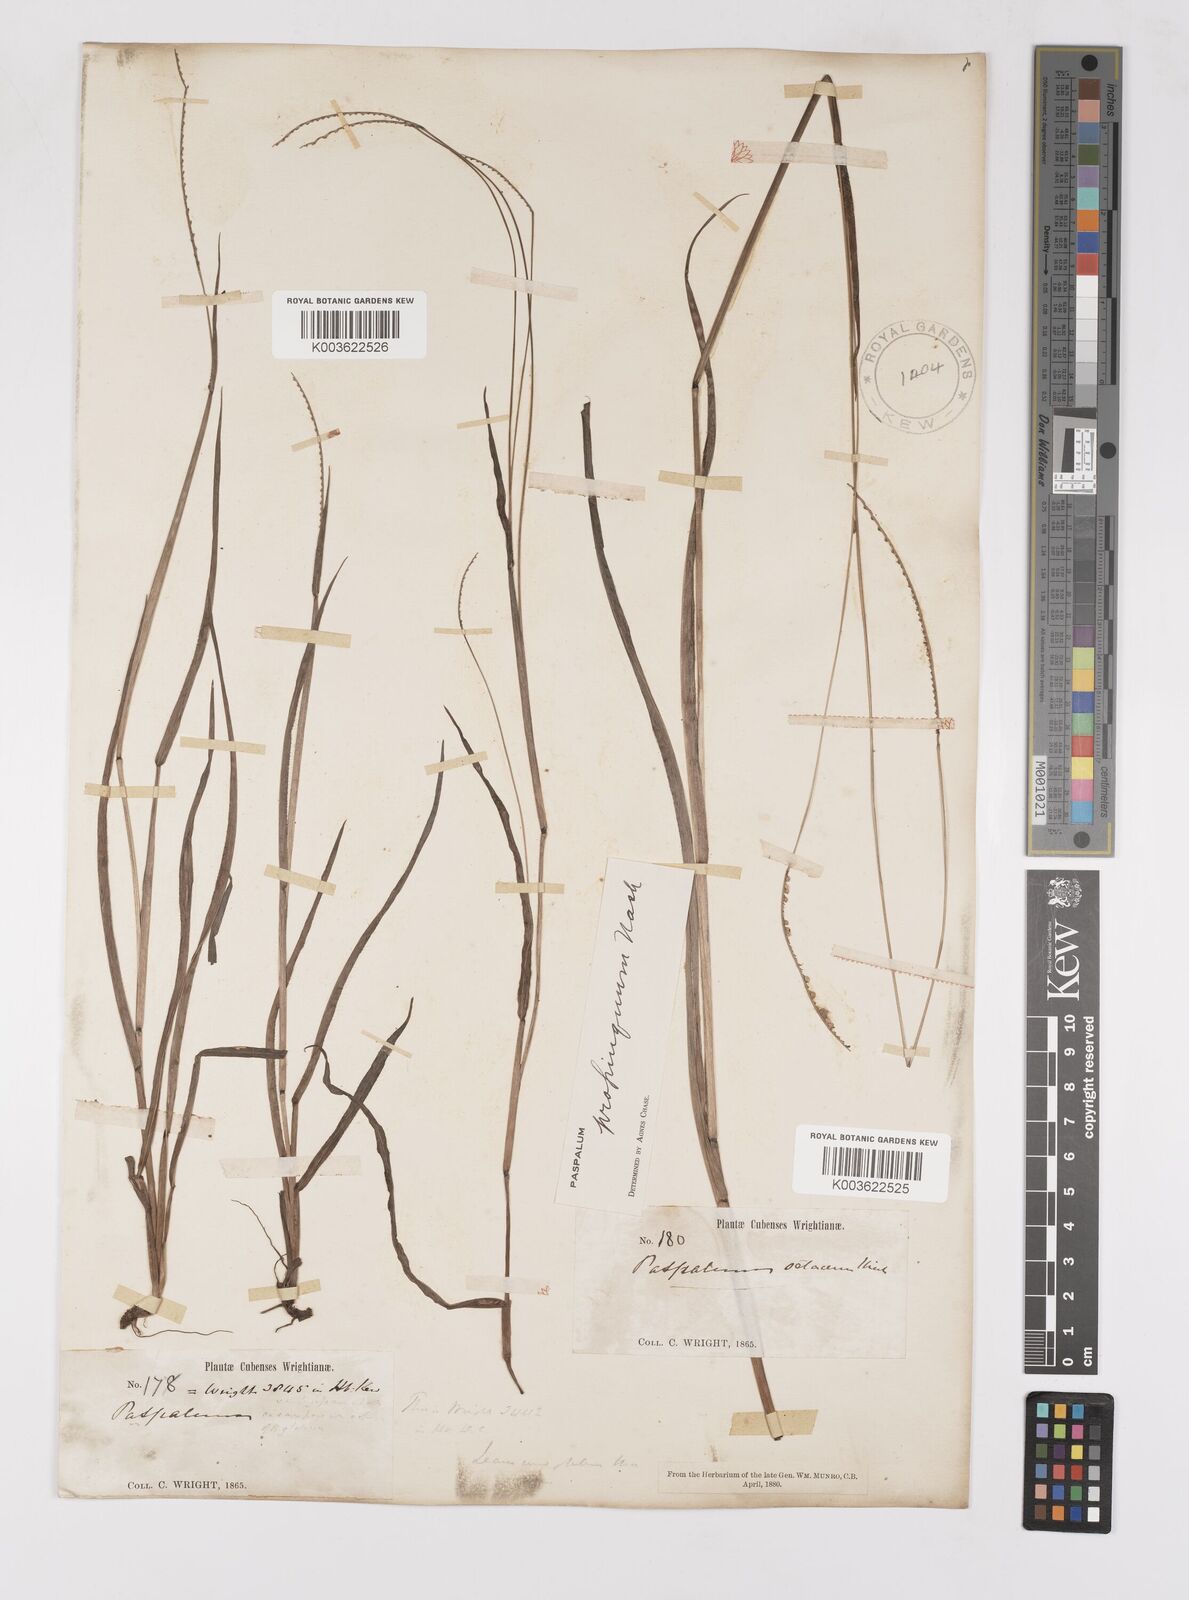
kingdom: Plantae
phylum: Tracheophyta
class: Liliopsida
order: Poales
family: Poaceae
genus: Paspalum
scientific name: Paspalum setaceum
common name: Slender paspalum
